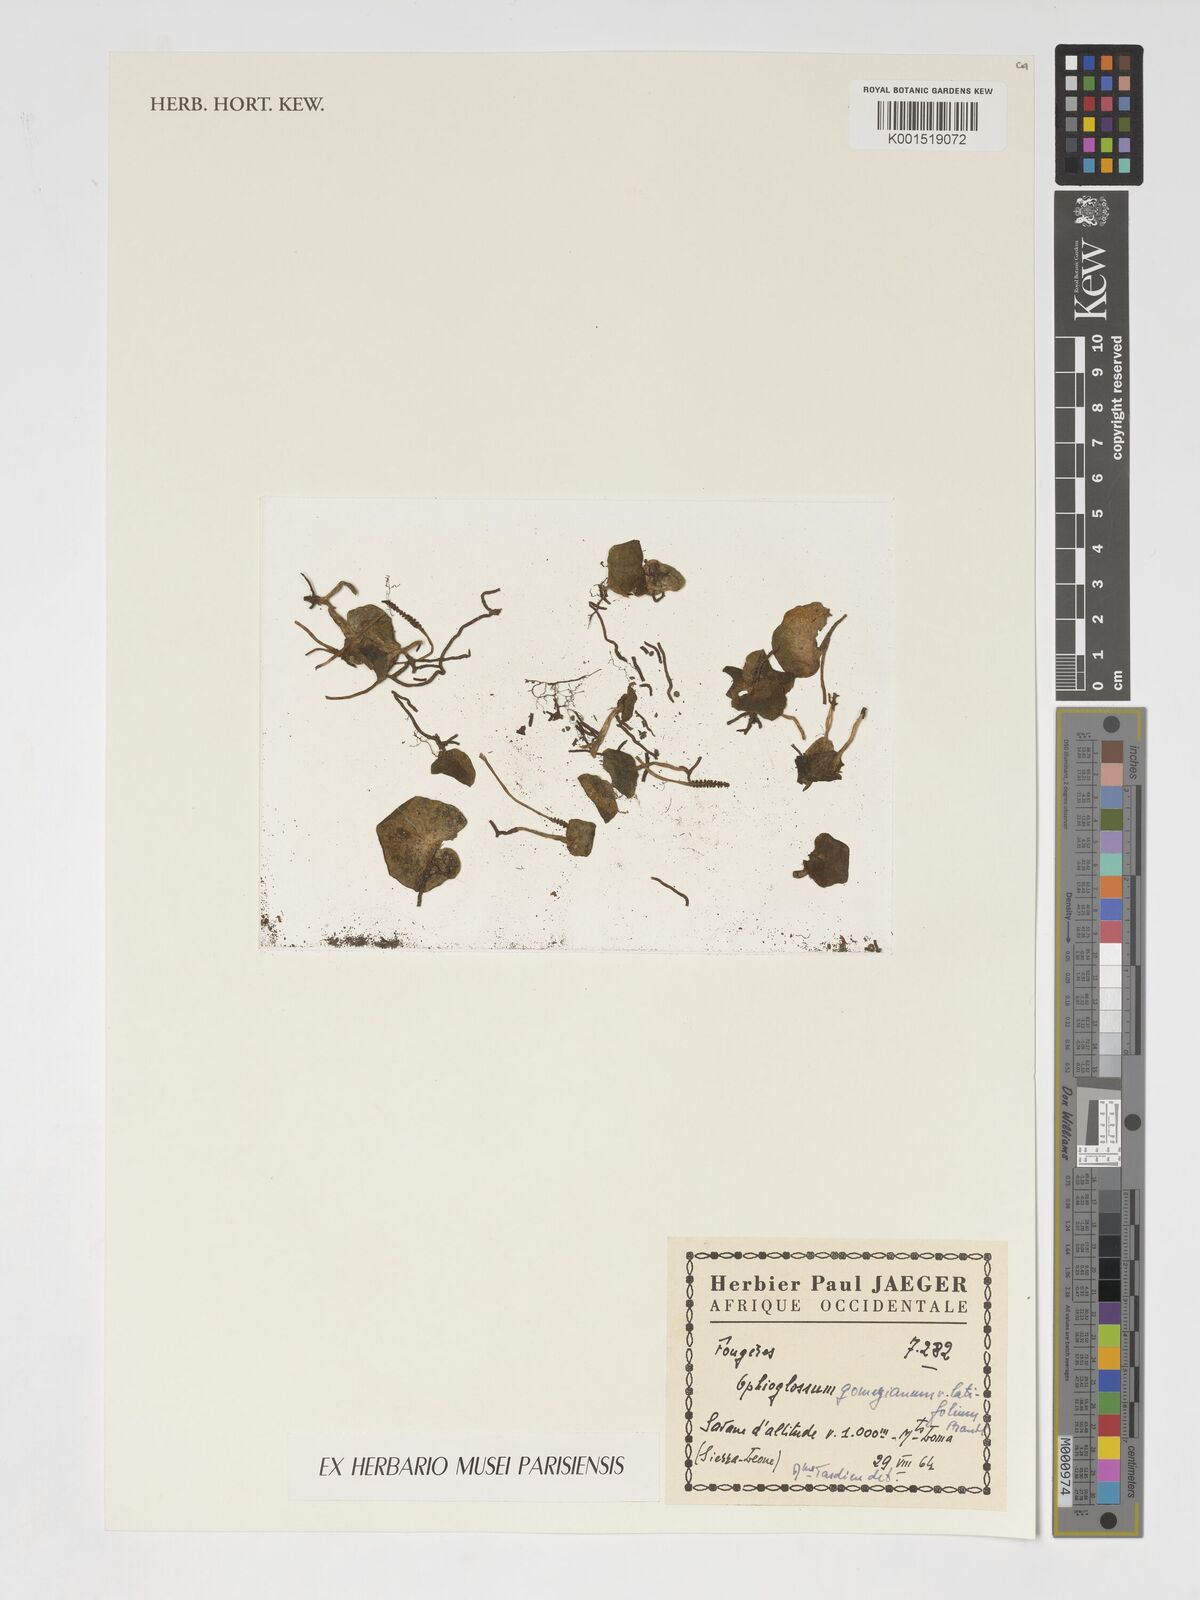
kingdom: Plantae
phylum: Tracheophyta
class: Polypodiopsida
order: Ophioglossales
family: Ophioglossaceae
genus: Ophioglossum
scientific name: Ophioglossum latifolium
